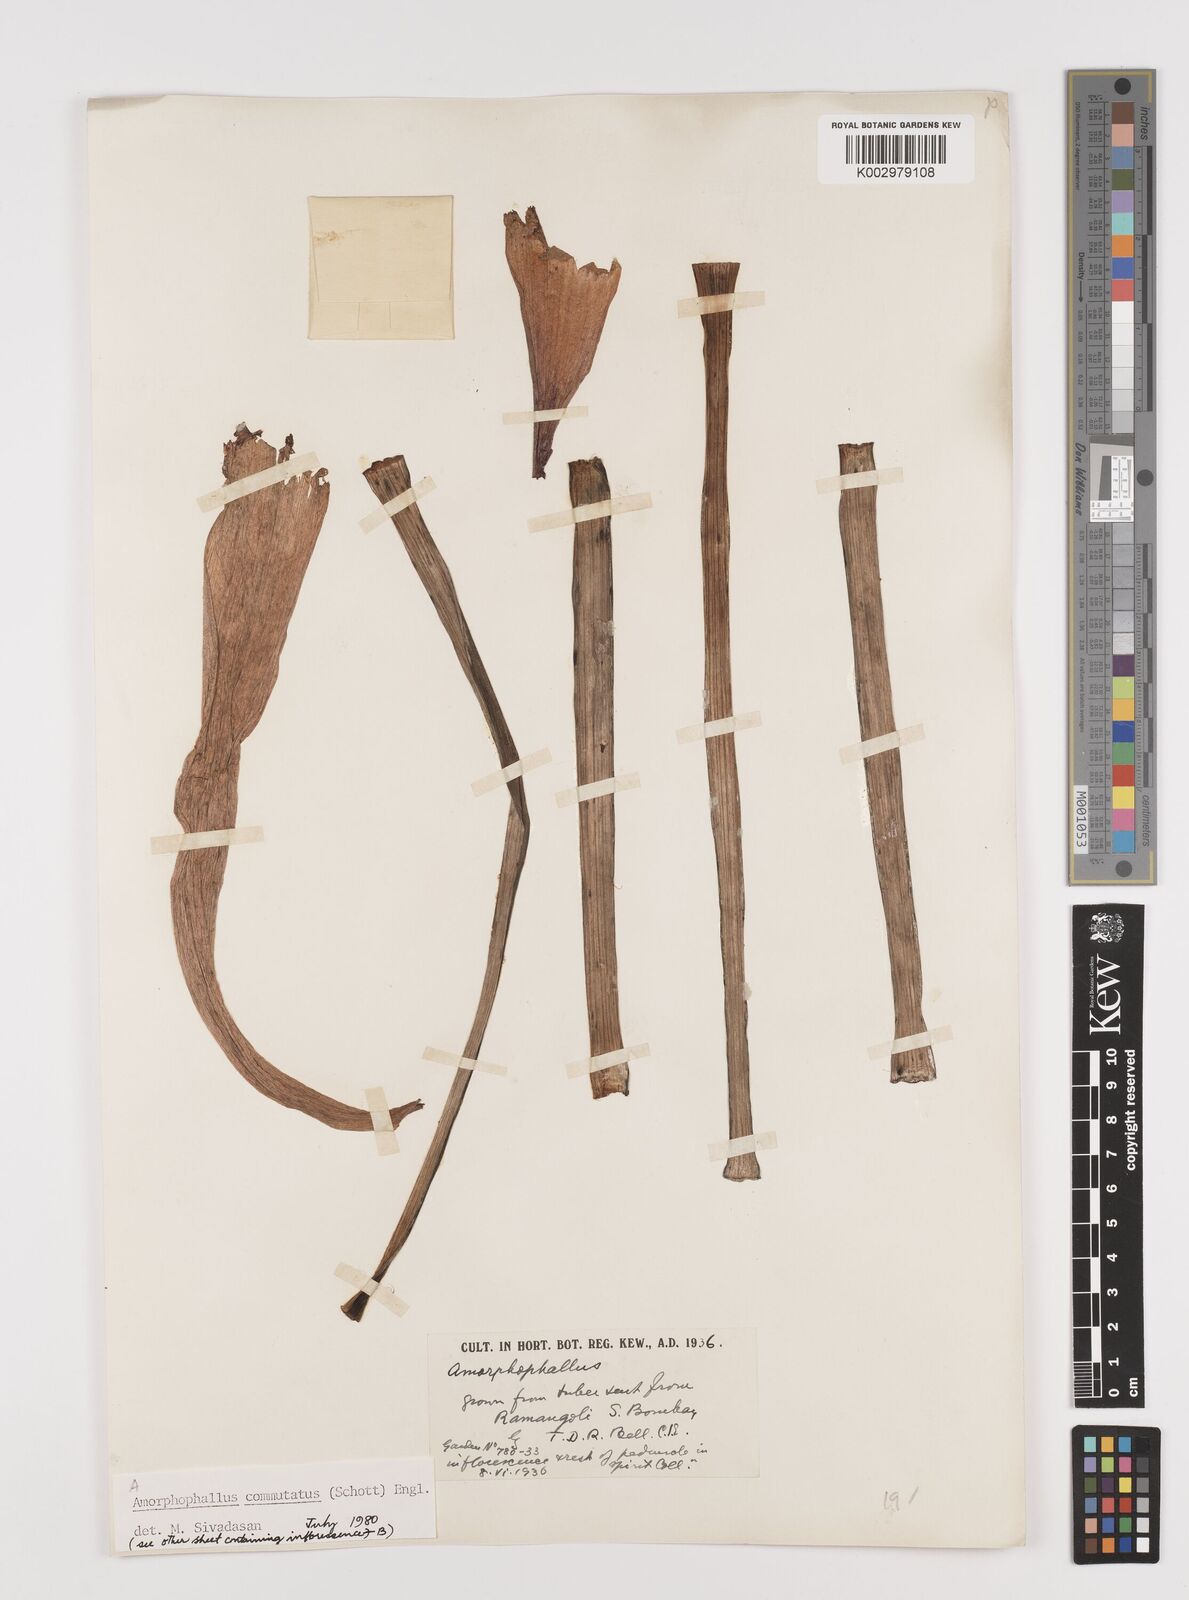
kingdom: Plantae
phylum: Tracheophyta
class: Liliopsida
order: Alismatales
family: Araceae
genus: Amorphophallus
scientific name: Amorphophallus commutatus
